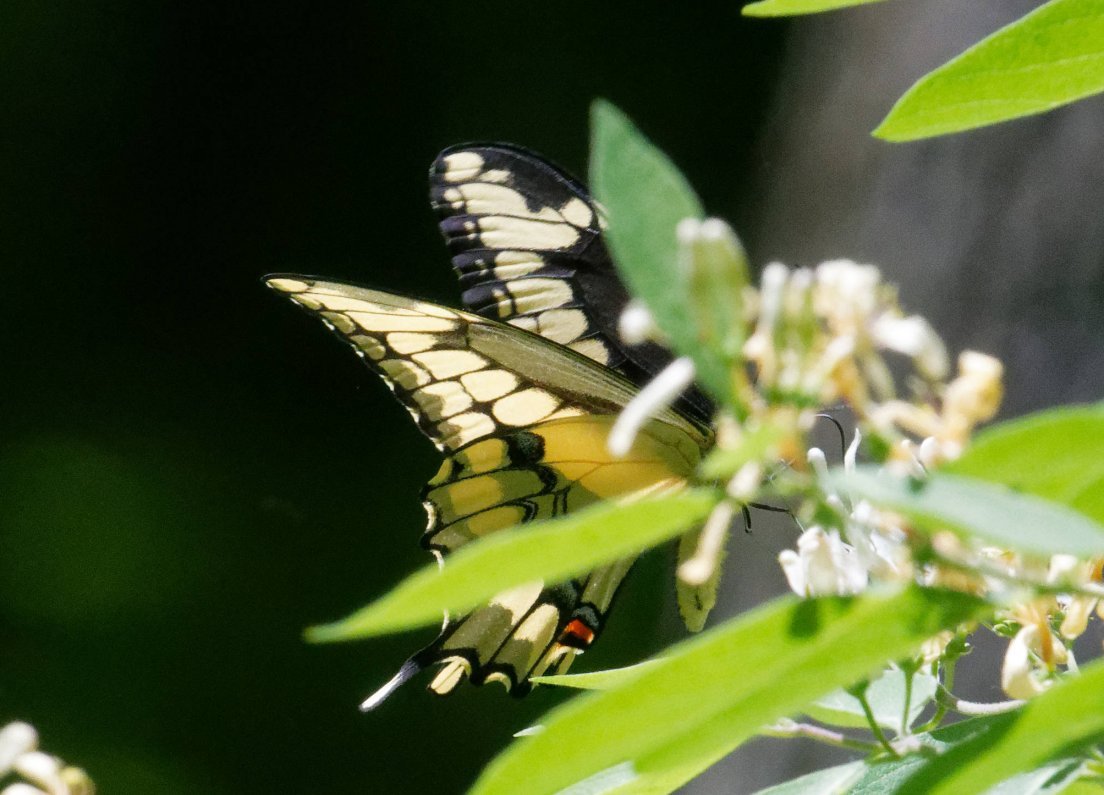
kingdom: Animalia
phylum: Arthropoda
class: Insecta
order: Lepidoptera
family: Papilionidae
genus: Papilio
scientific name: Papilio cresphontes
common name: Eastern Giant Swallowtail
